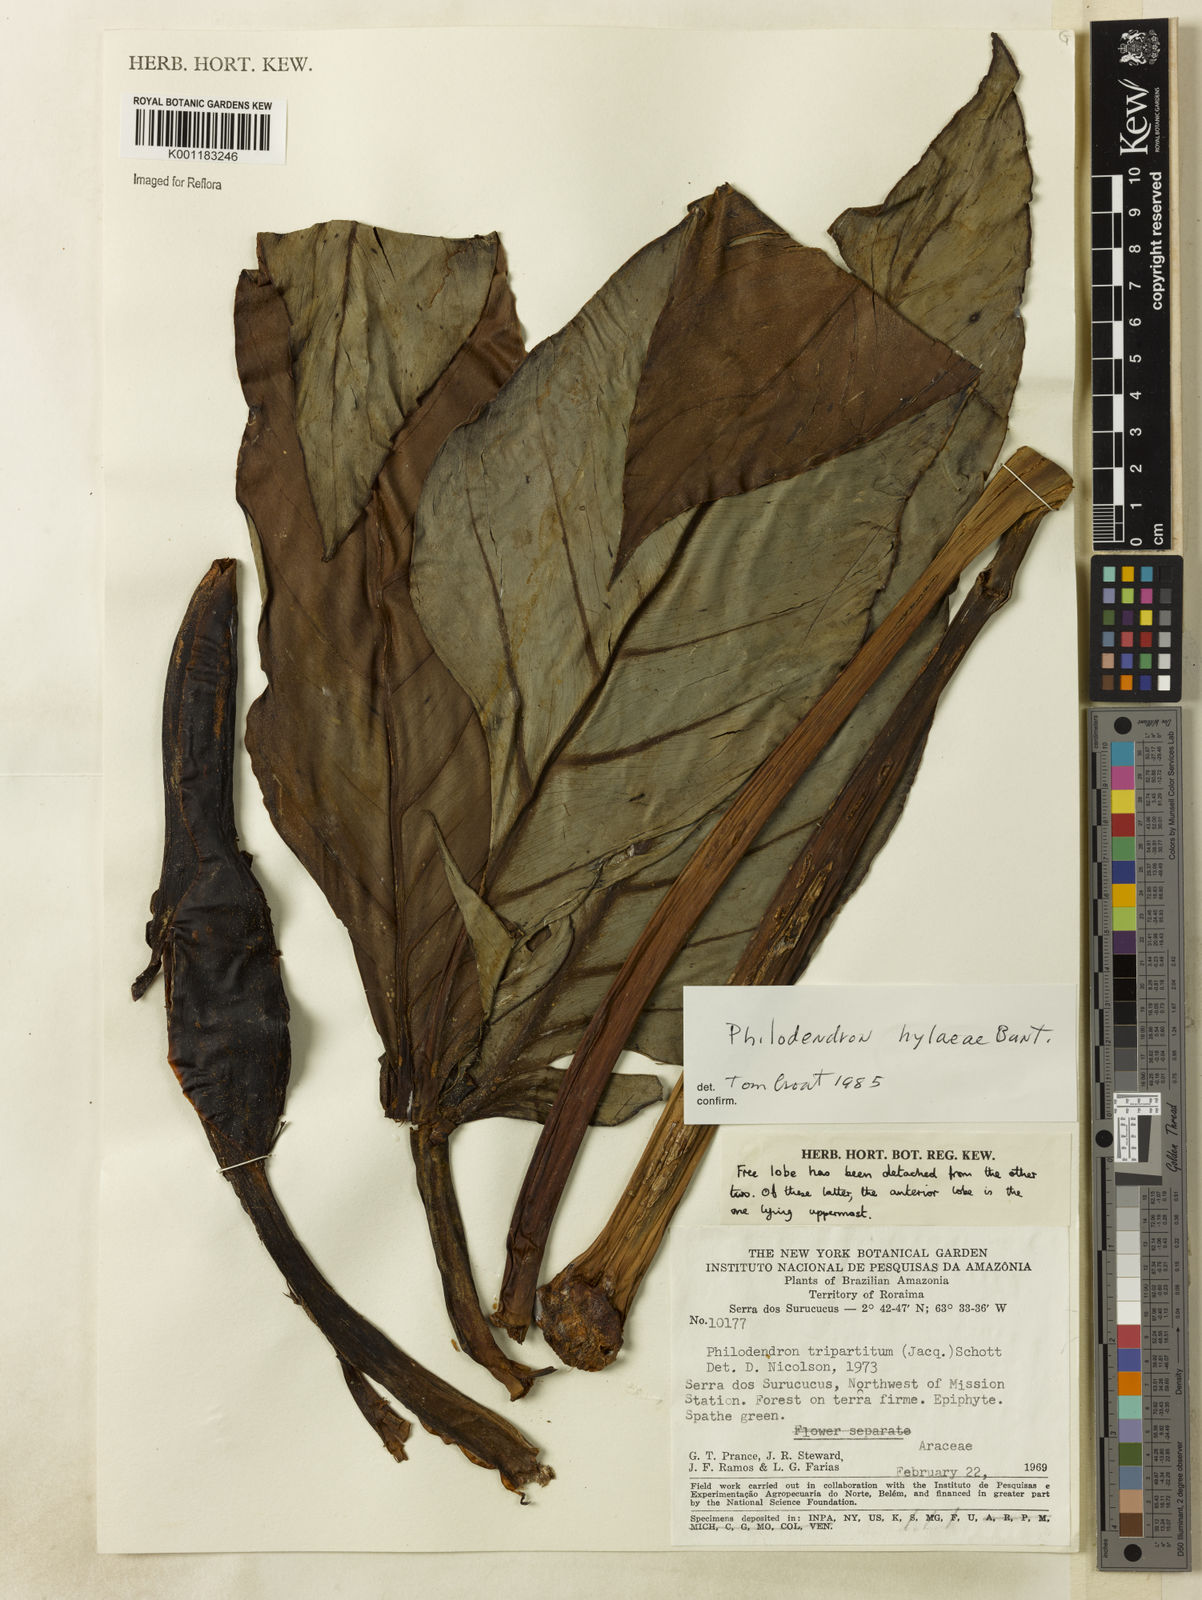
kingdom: Plantae
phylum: Tracheophyta
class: Liliopsida
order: Alismatales
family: Araceae
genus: Philodendron
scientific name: Philodendron hylaeae
